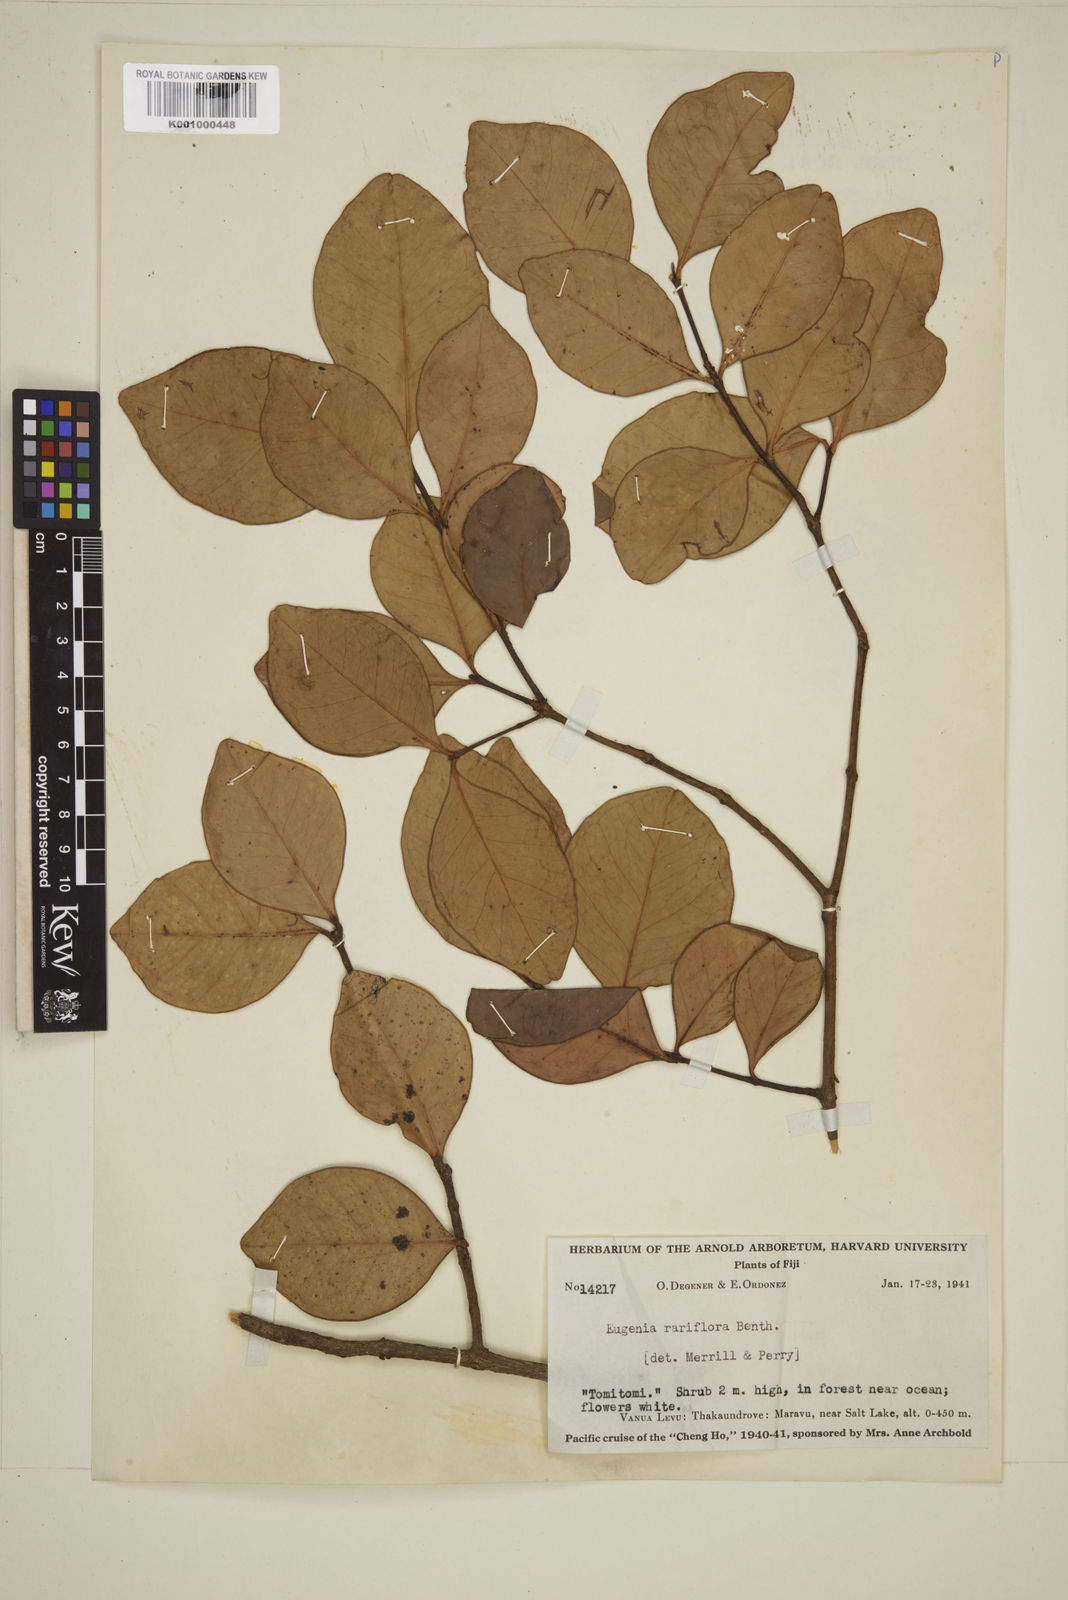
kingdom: Plantae
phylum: Tracheophyta
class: Magnoliopsida
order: Myrtales
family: Myrtaceae
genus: Eugenia
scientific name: Eugenia reinwardtiana
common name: Cedar bay-cherry
